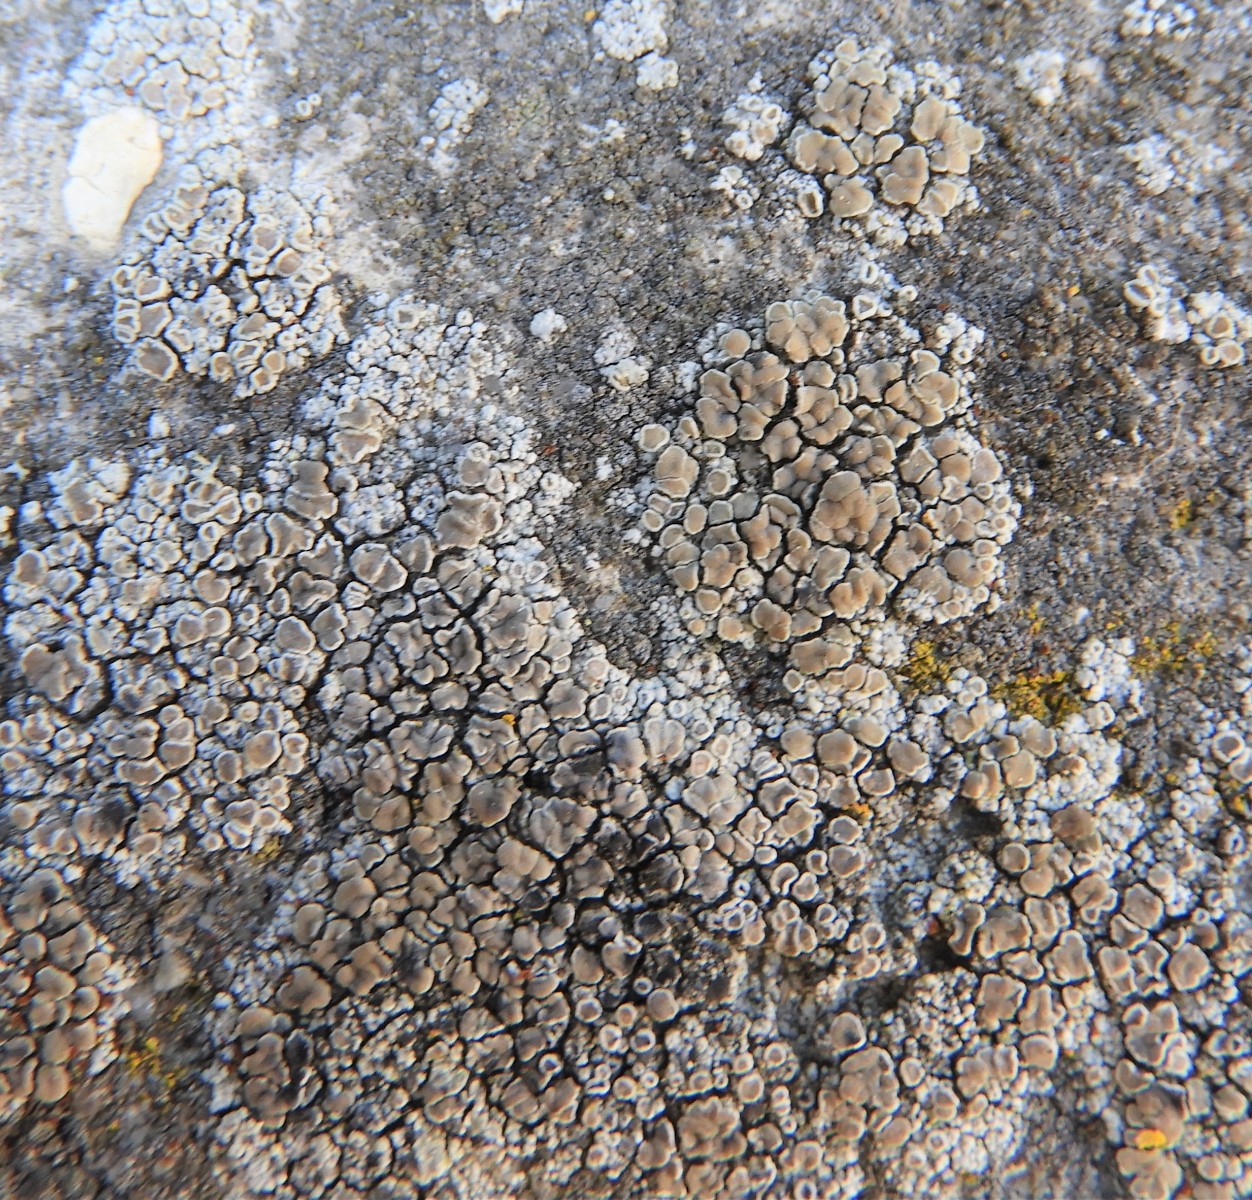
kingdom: Fungi
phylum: Ascomycota
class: Lecanoromycetes
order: Lecanorales
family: Lecanoraceae
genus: Polyozosia
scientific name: Polyozosia albescens
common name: cement-kantskivelav
